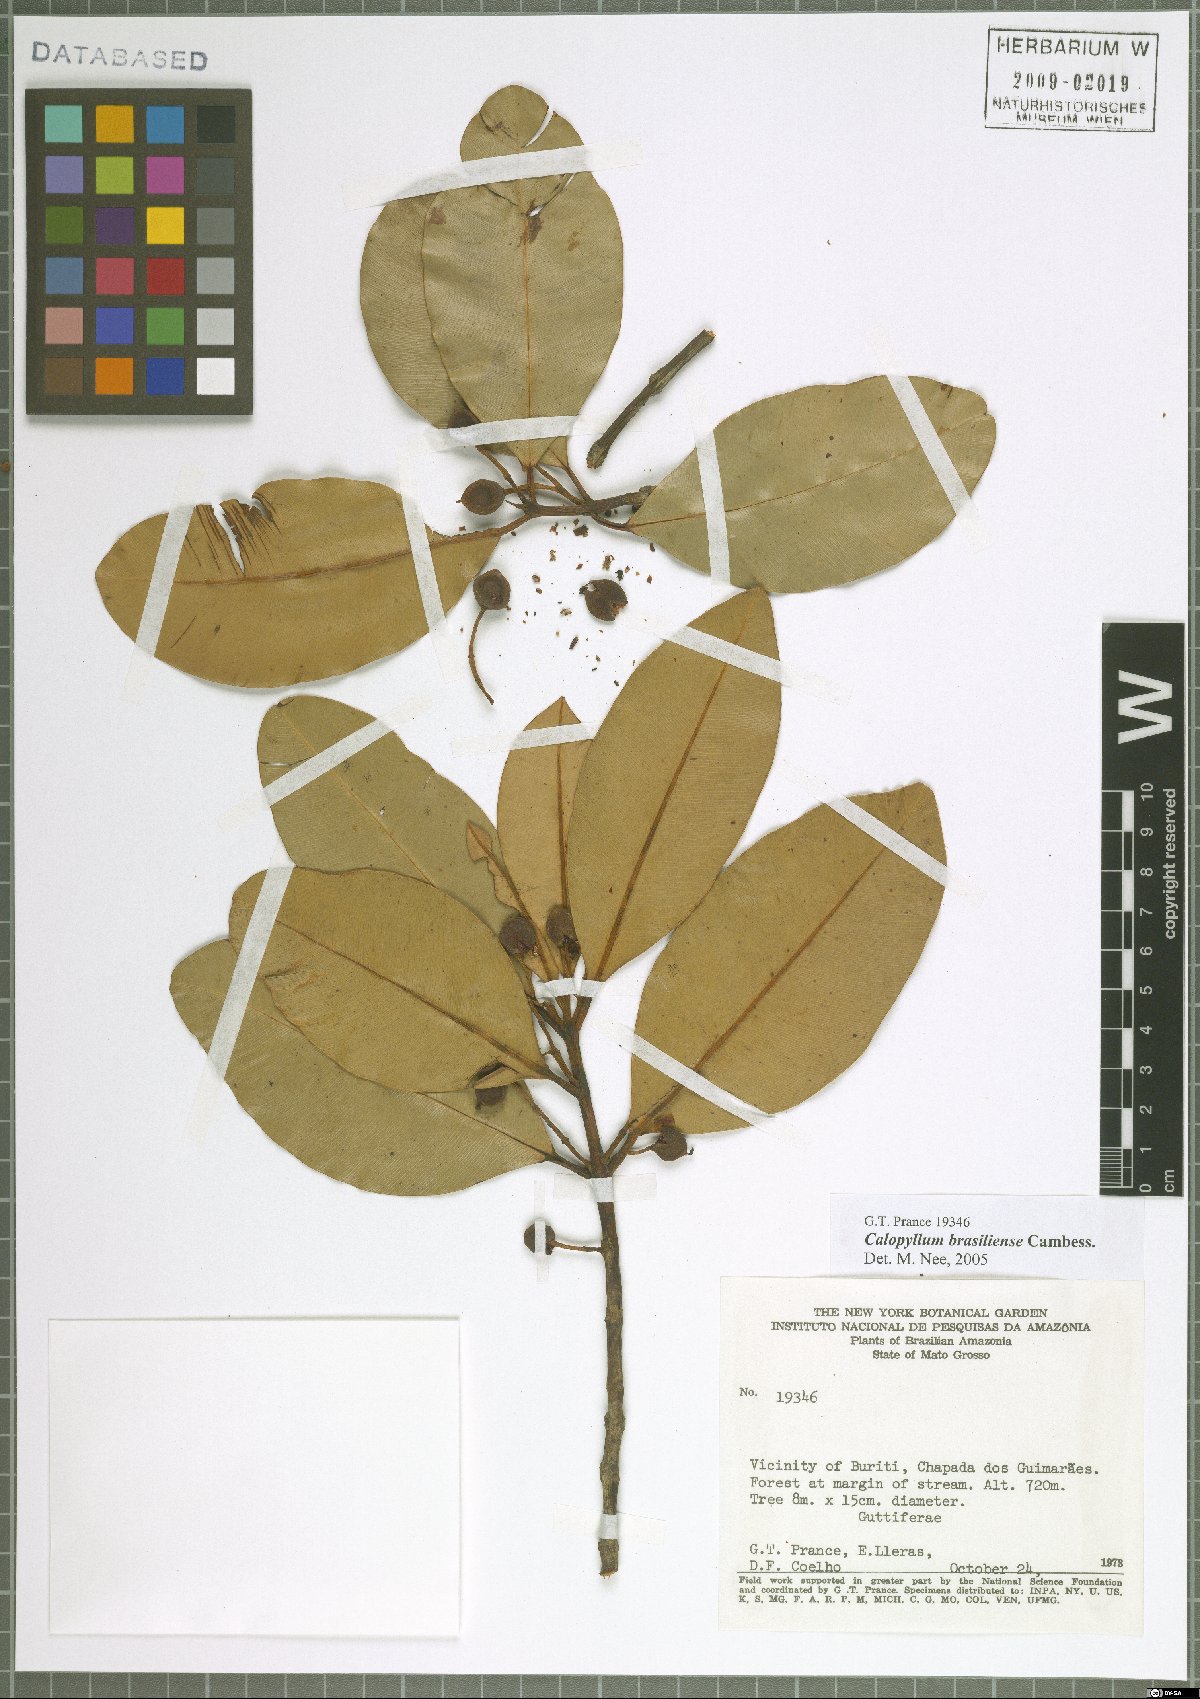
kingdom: Plantae
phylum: Tracheophyta
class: Magnoliopsida
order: Malpighiales
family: Calophyllaceae
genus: Calophyllum
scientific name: Calophyllum brasiliense
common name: Santa maria
